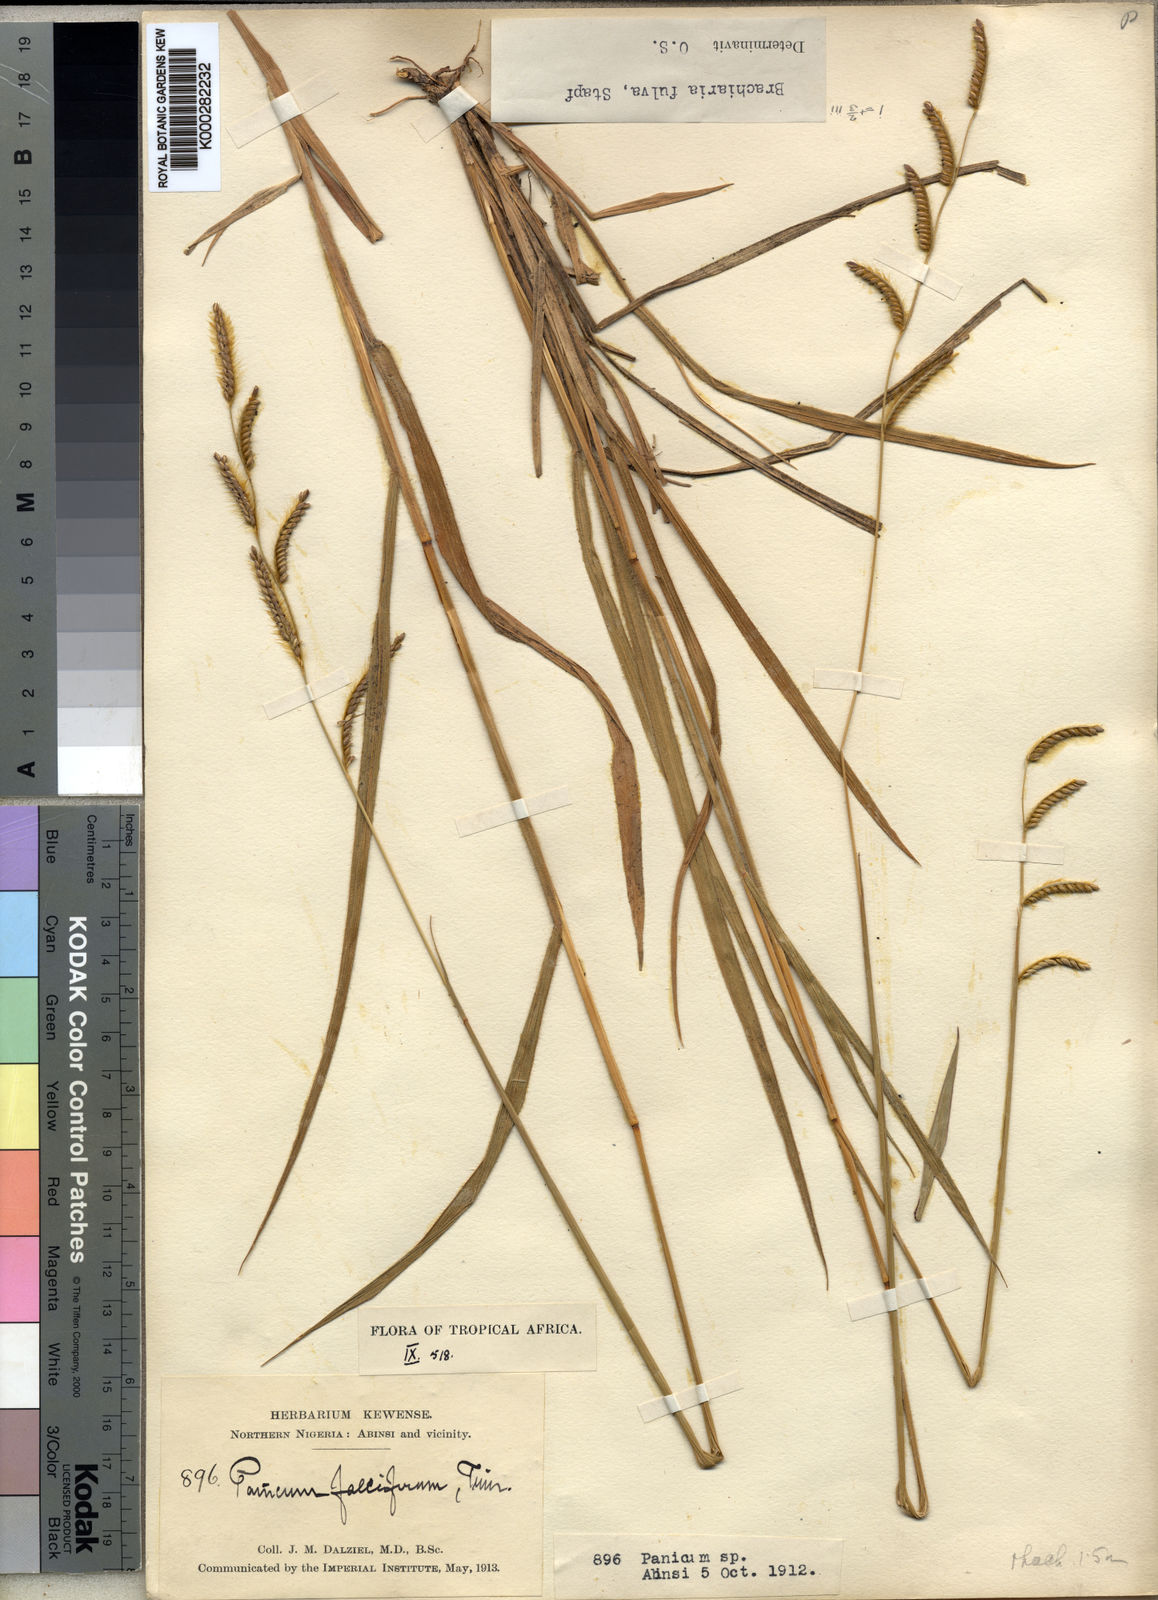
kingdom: Plantae
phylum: Tracheophyta
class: Liliopsida
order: Poales
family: Poaceae
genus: Urochloa
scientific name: Urochloa jubata
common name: Buffalograss
